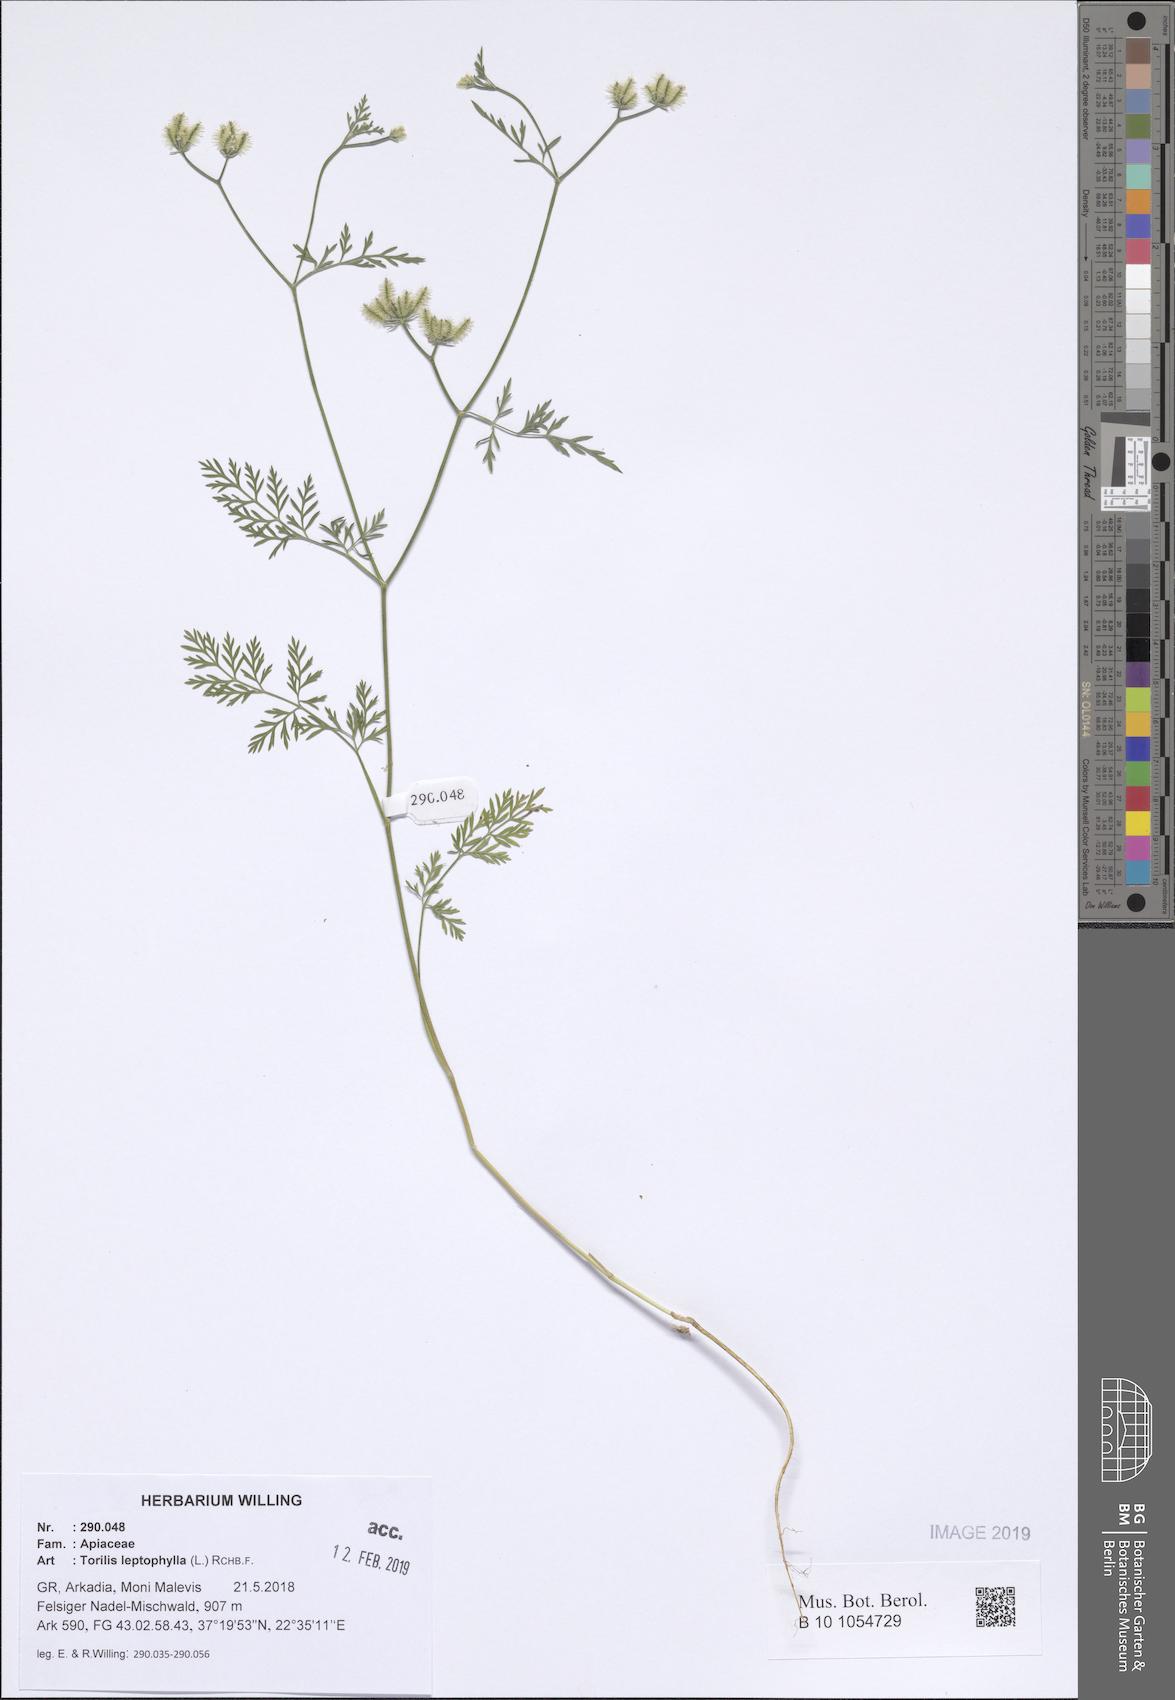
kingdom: Plantae
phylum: Tracheophyta
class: Magnoliopsida
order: Apiales
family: Apiaceae
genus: Torilis
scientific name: Torilis leptophylla
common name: Bristlefruit hedgeparsley
